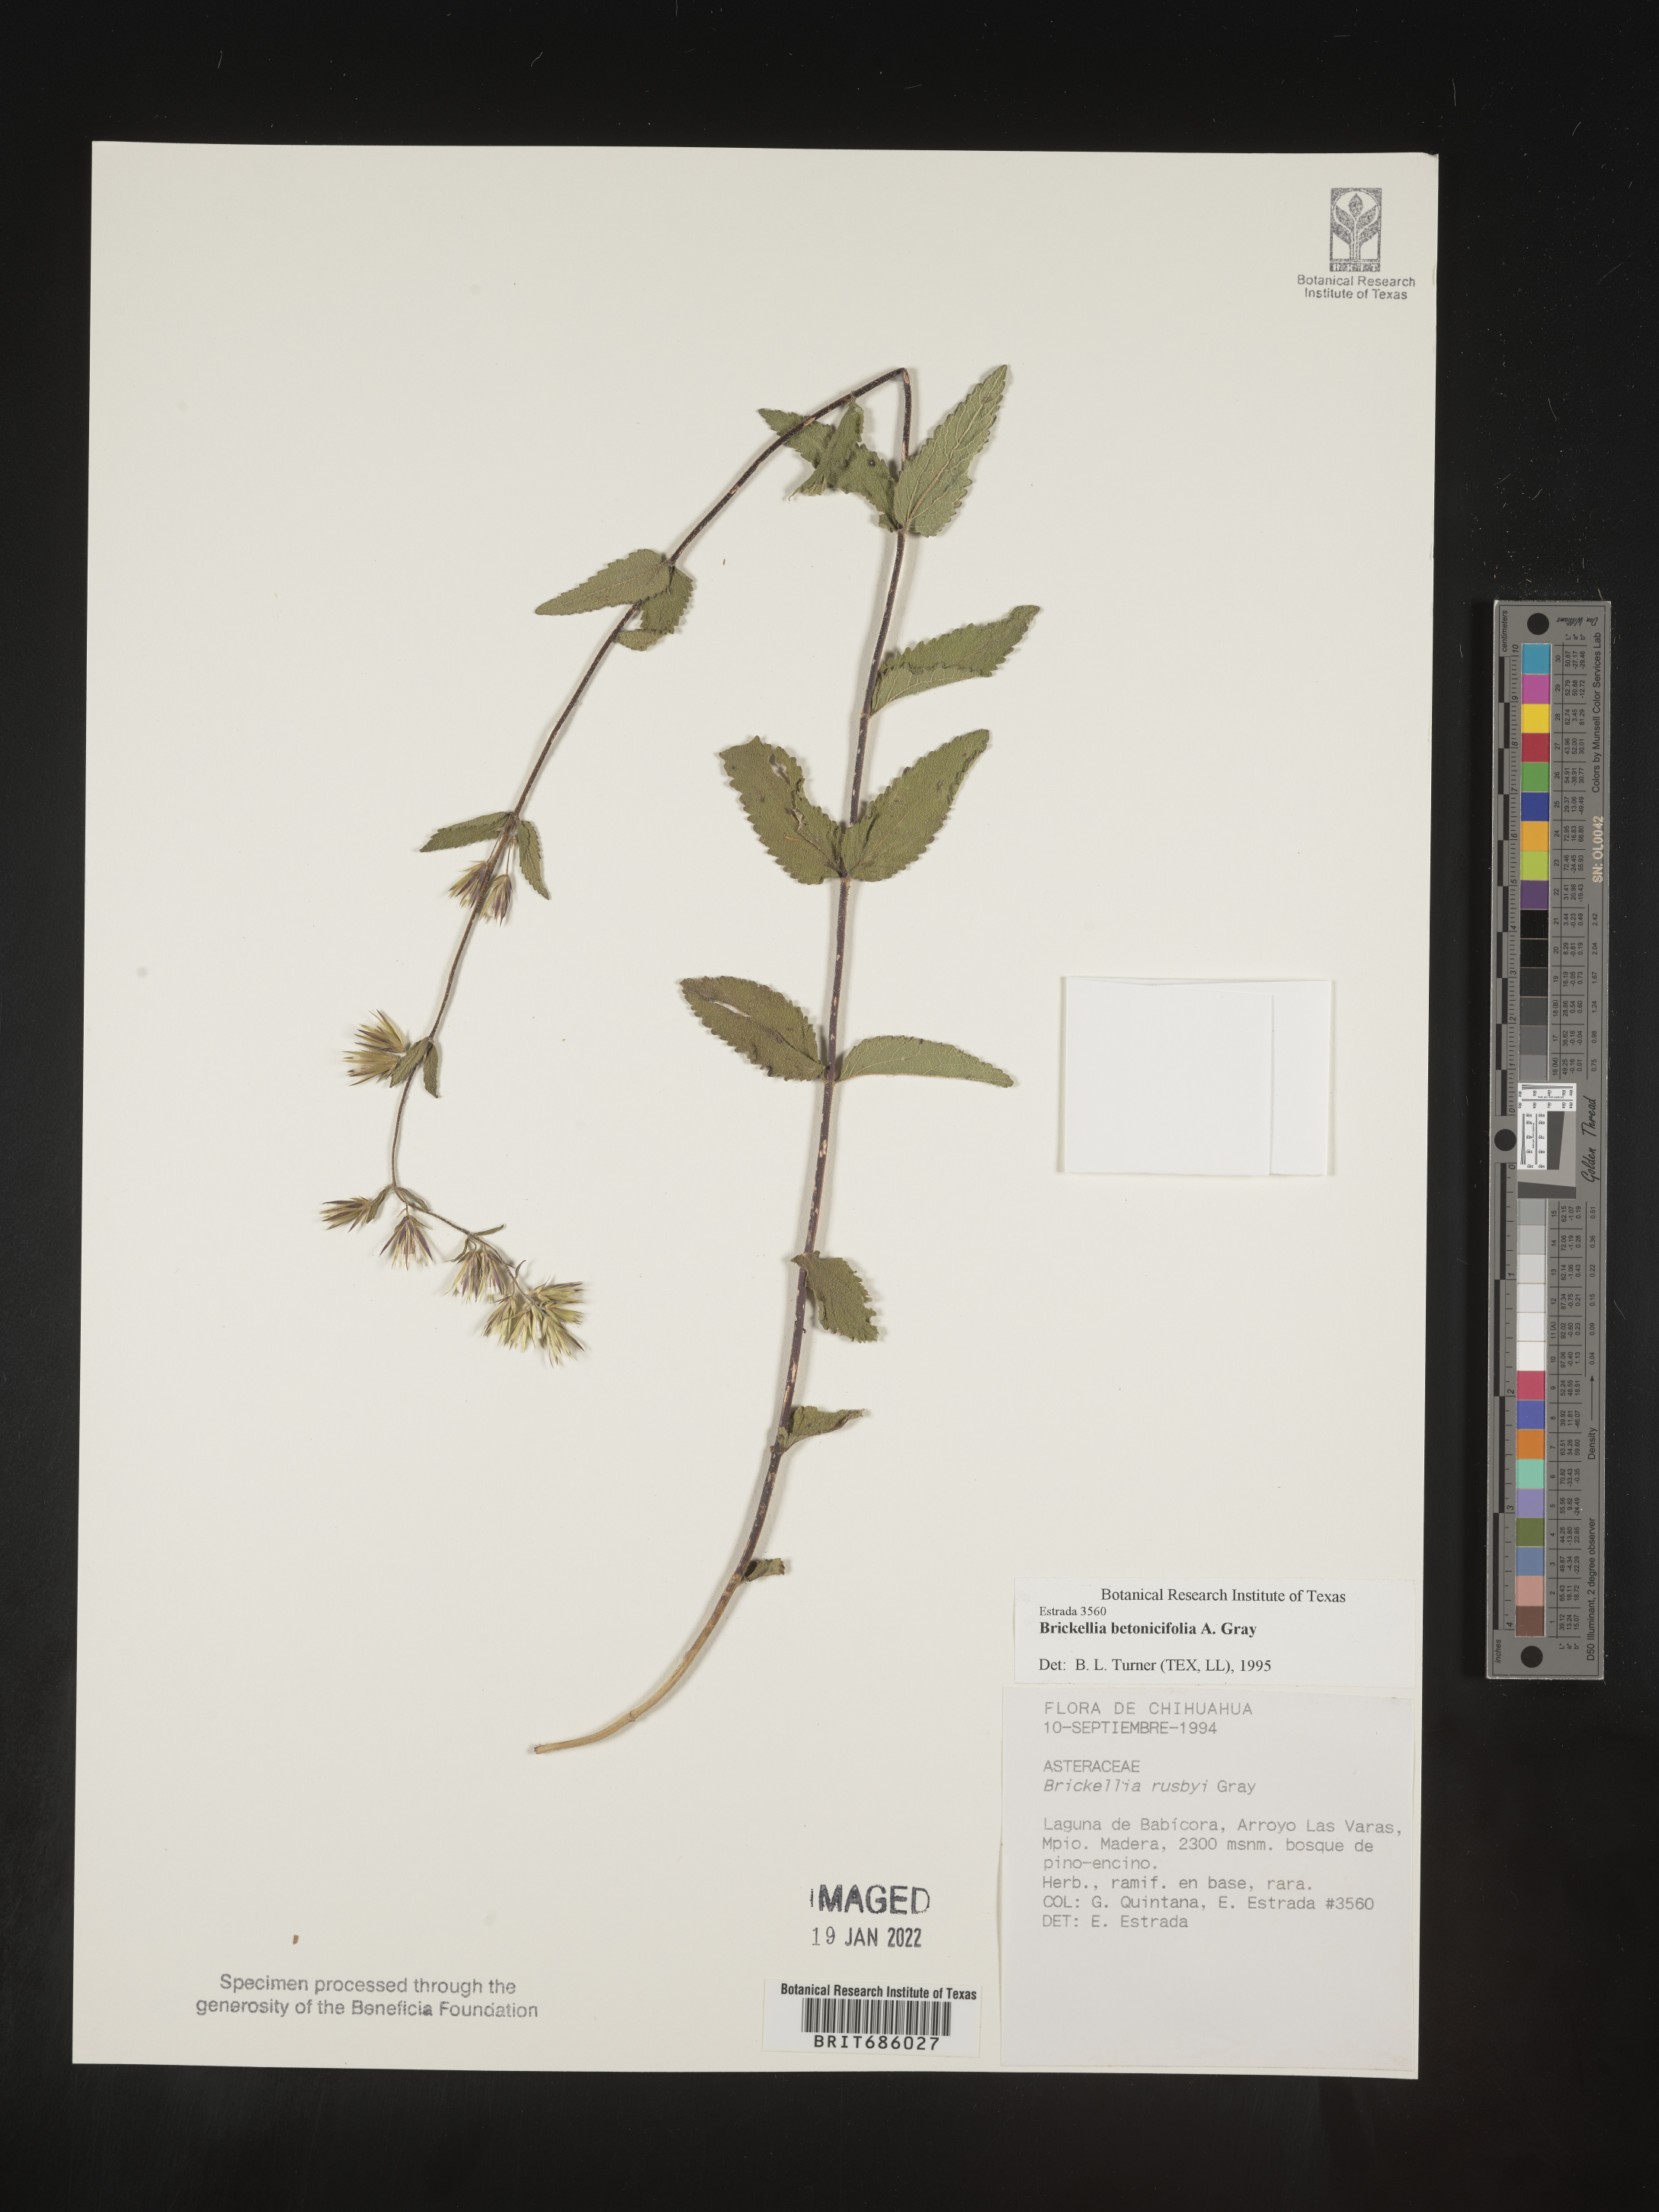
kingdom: Plantae
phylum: Tracheophyta
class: Magnoliopsida
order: Asterales
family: Asteraceae
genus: Brickellia
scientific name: Brickellia
